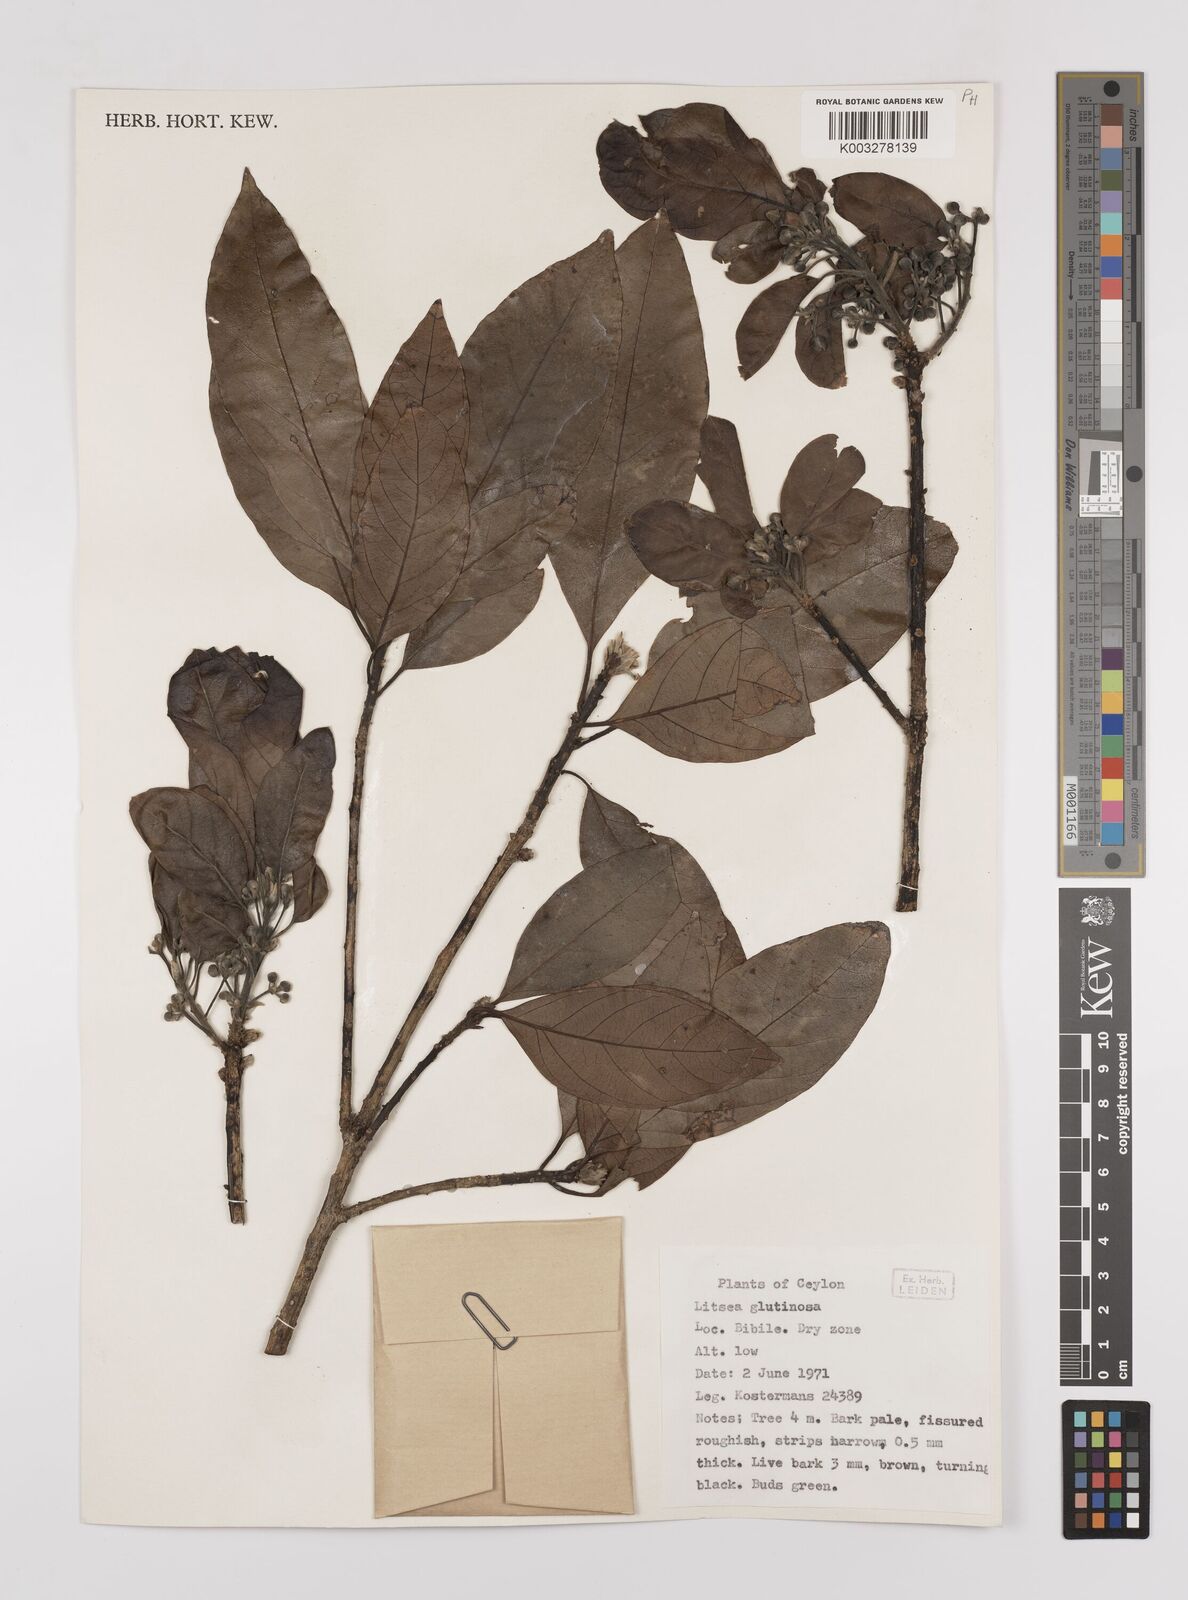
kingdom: Plantae
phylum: Tracheophyta
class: Magnoliopsida
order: Laurales
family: Lauraceae
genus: Litsea
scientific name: Litsea
